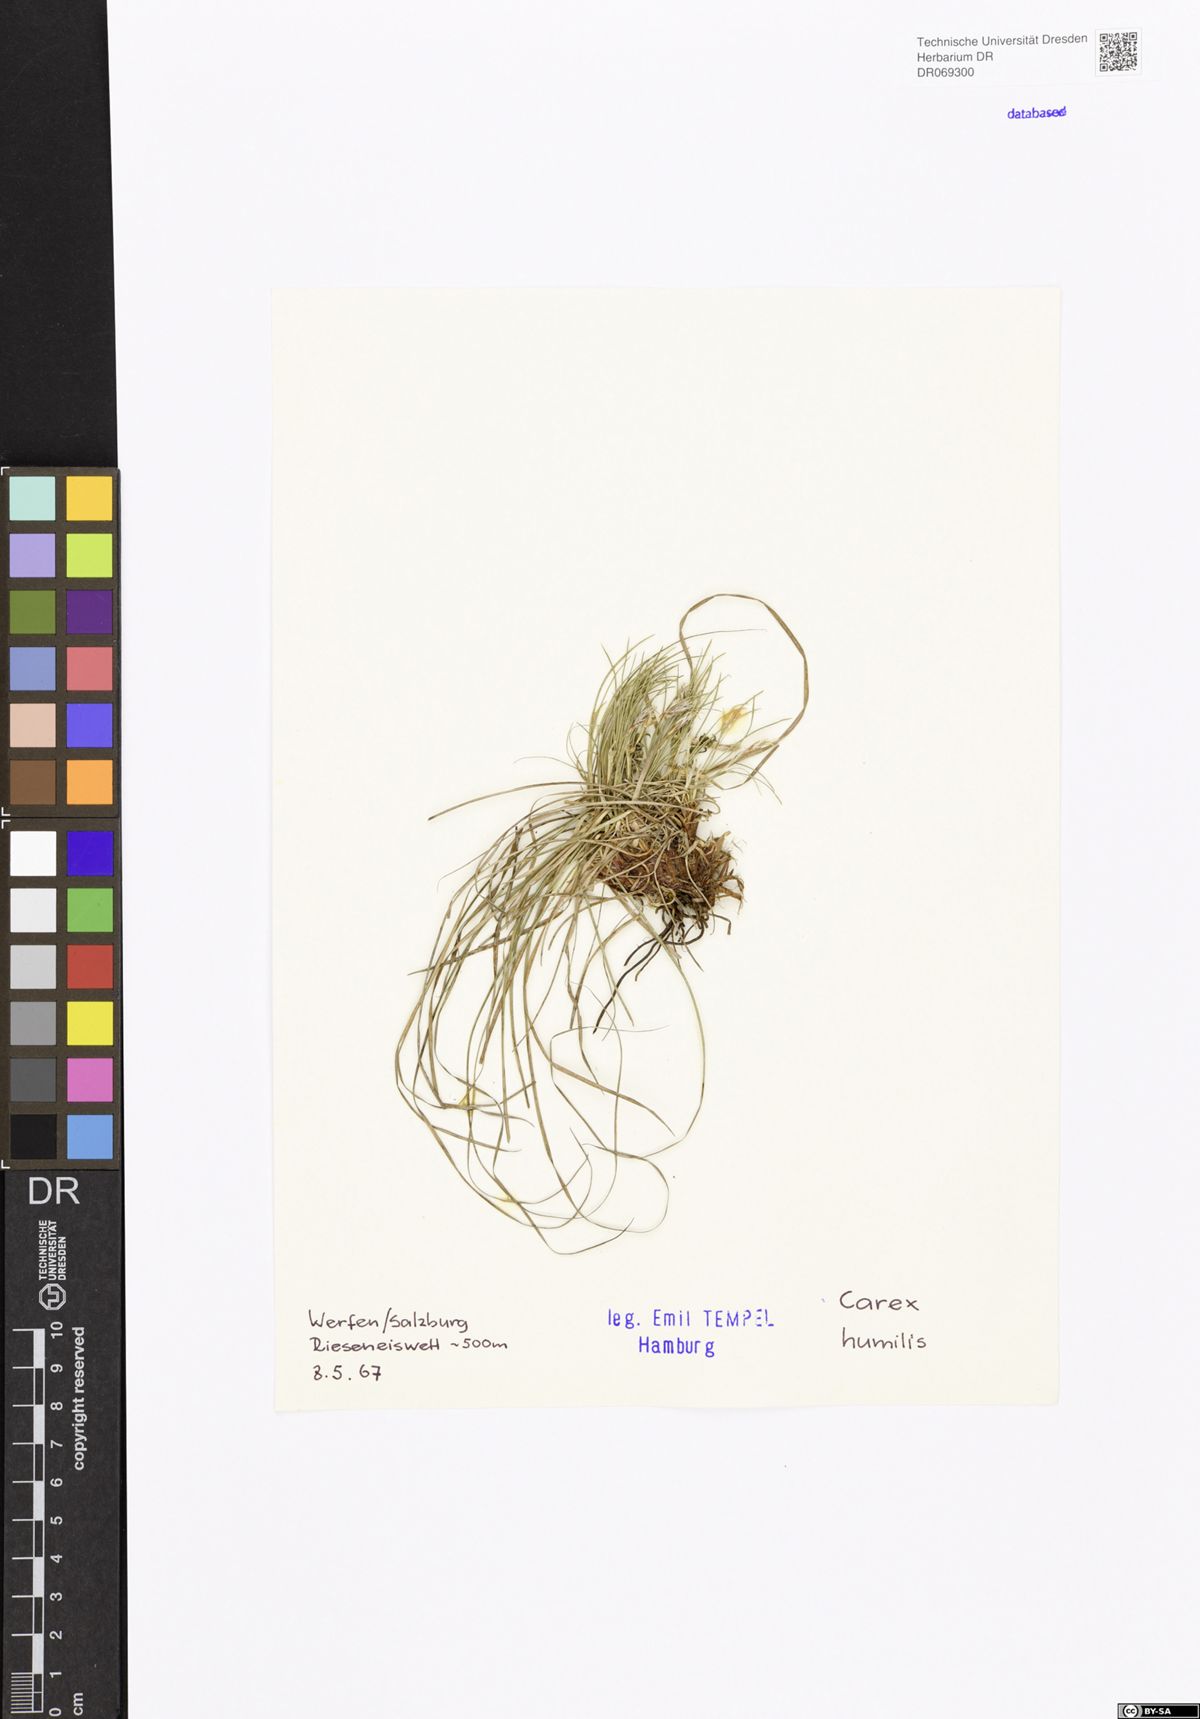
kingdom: Plantae
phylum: Tracheophyta
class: Liliopsida
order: Poales
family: Cyperaceae
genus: Carex
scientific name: Carex humilis
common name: Dwarf sedge
